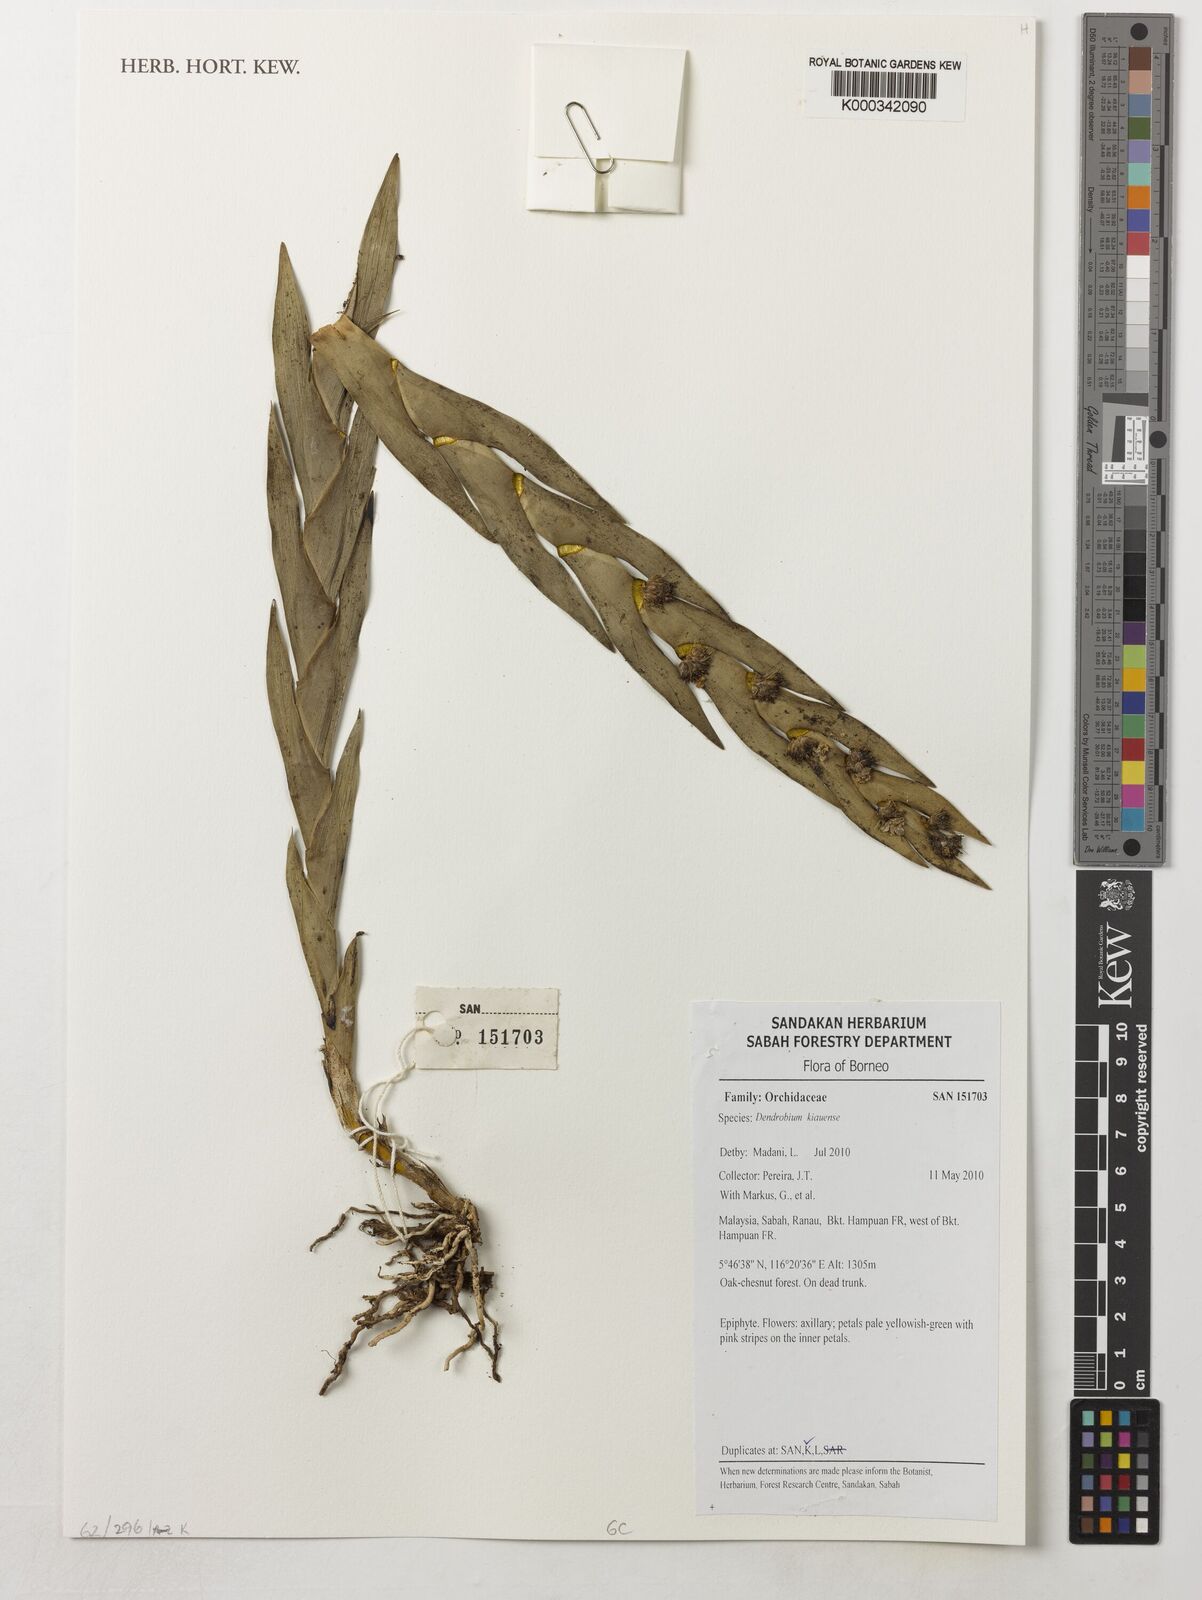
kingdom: Plantae
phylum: Tracheophyta
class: Liliopsida
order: Asparagales
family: Orchidaceae
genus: Dendrobium
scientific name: Dendrobium kiauense
